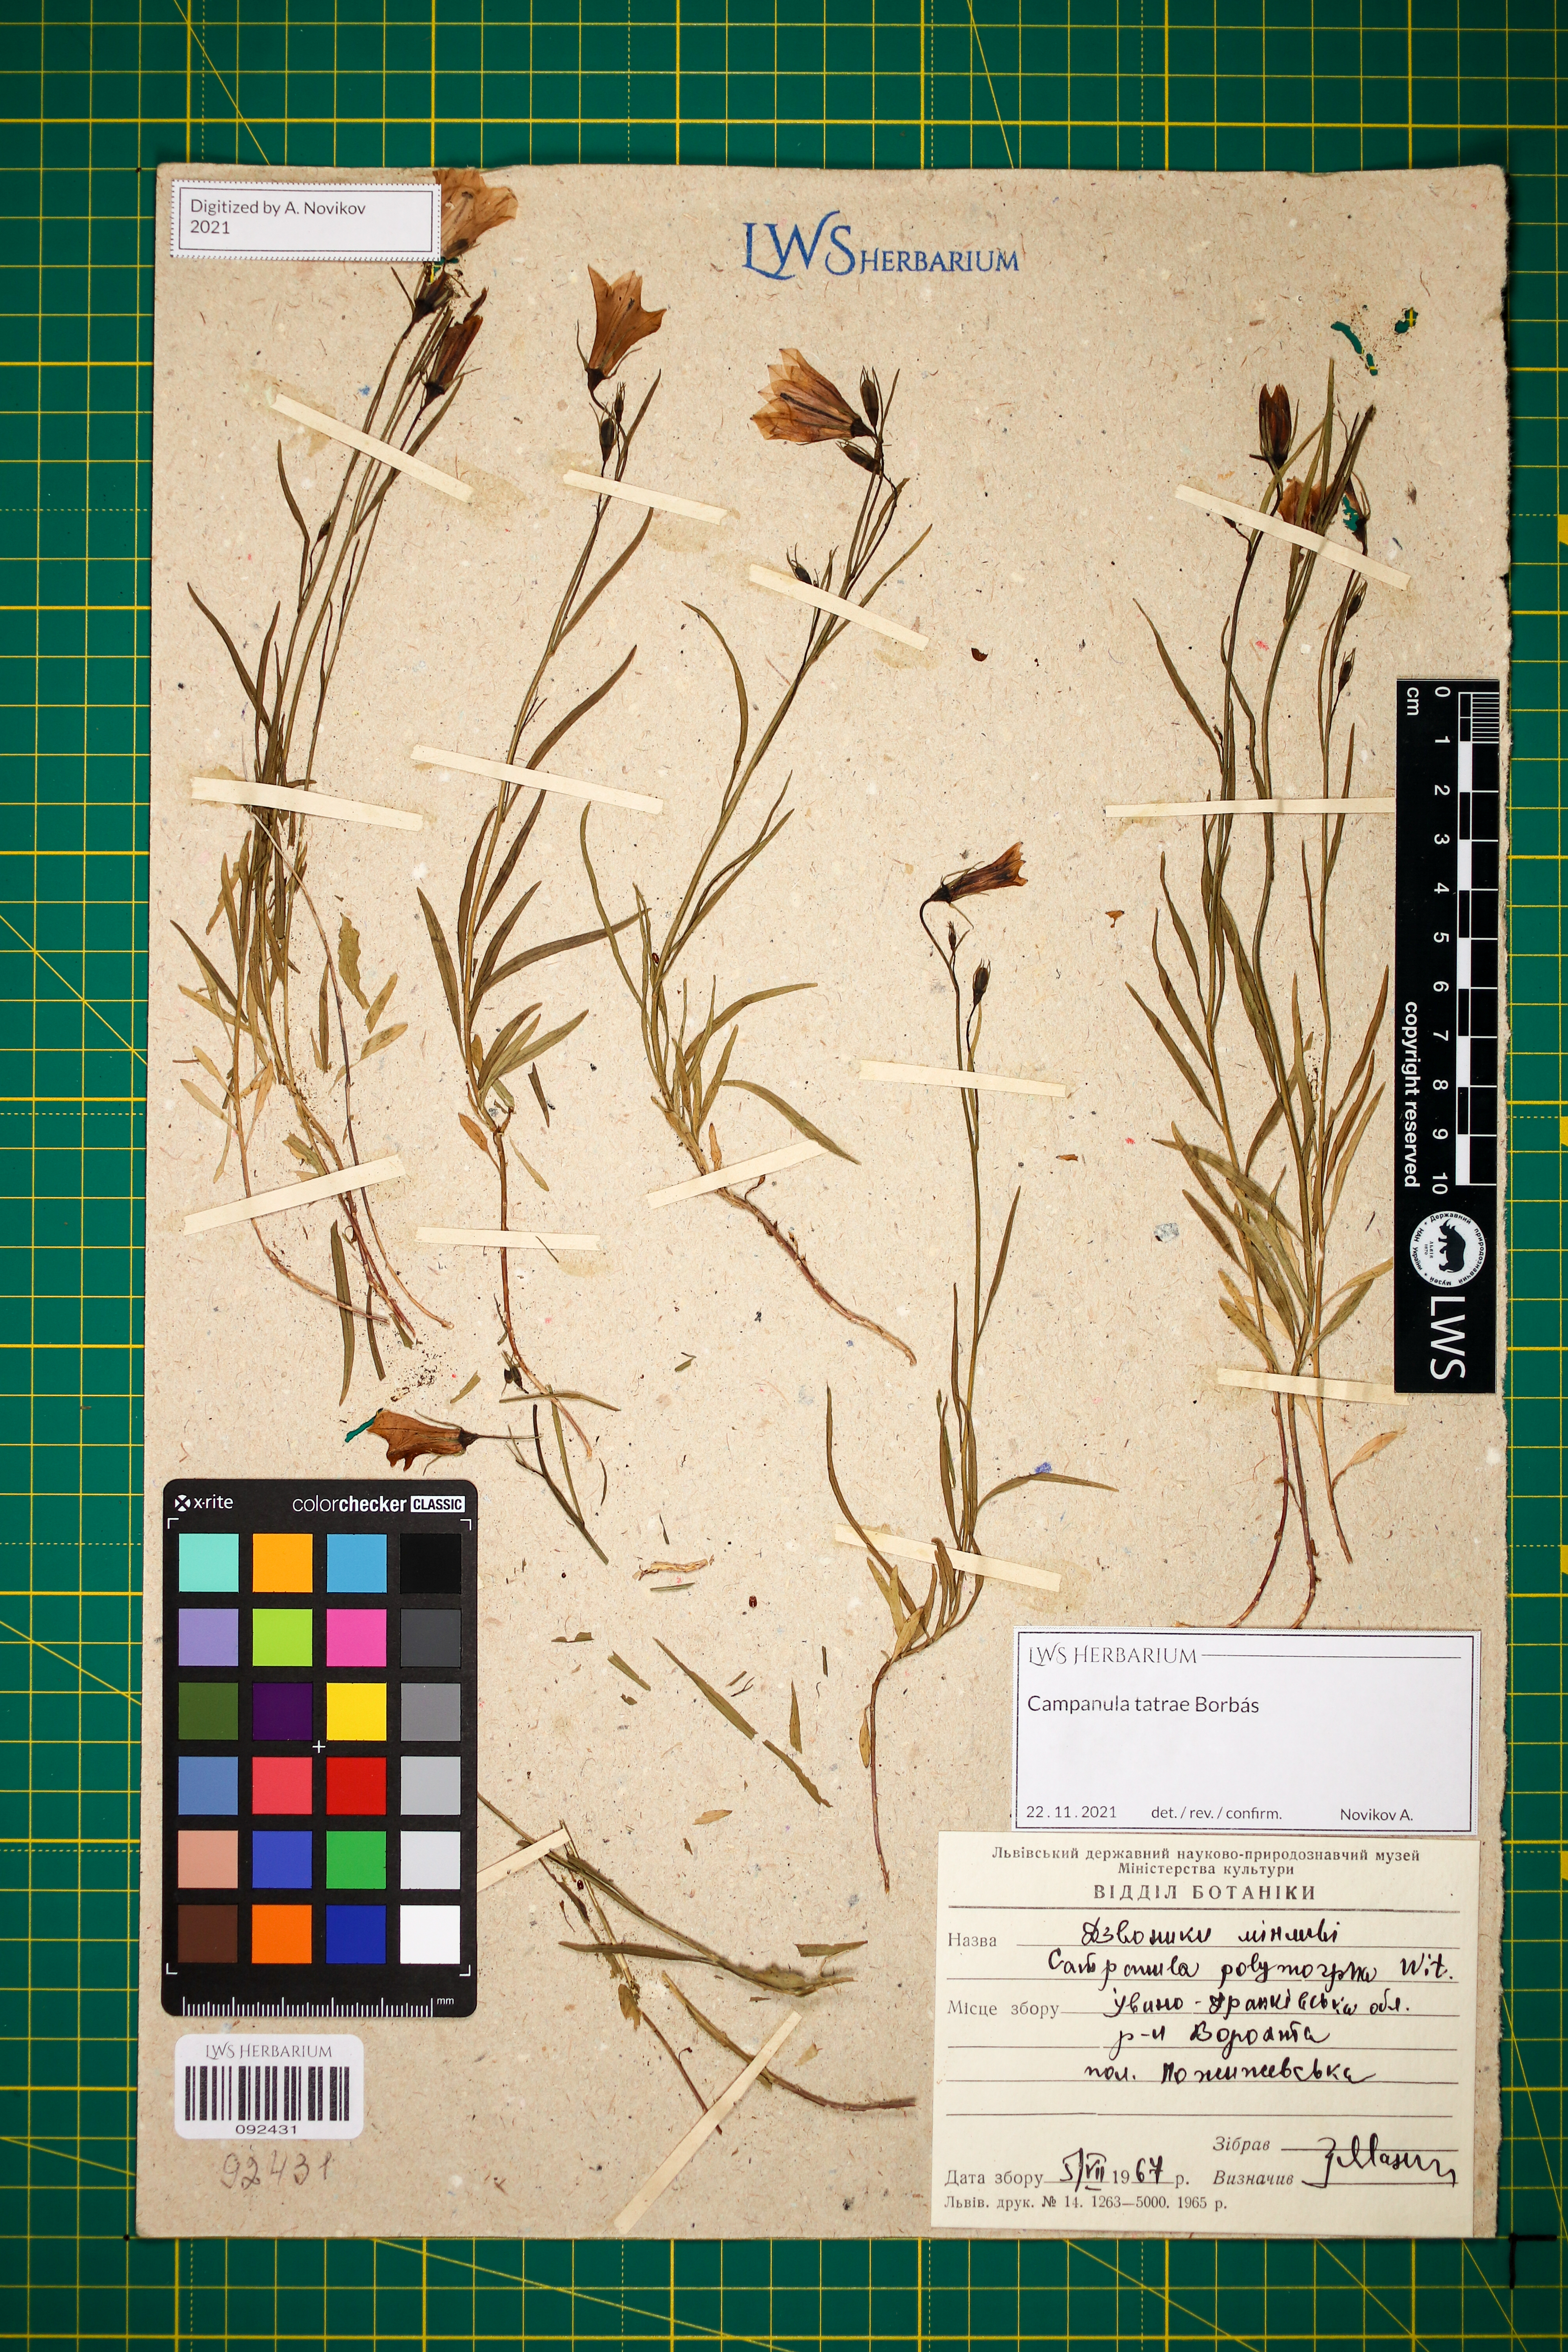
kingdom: Plantae
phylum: Tracheophyta
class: Magnoliopsida
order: Asterales
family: Campanulaceae
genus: Campanula
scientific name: Campanula tatrae
